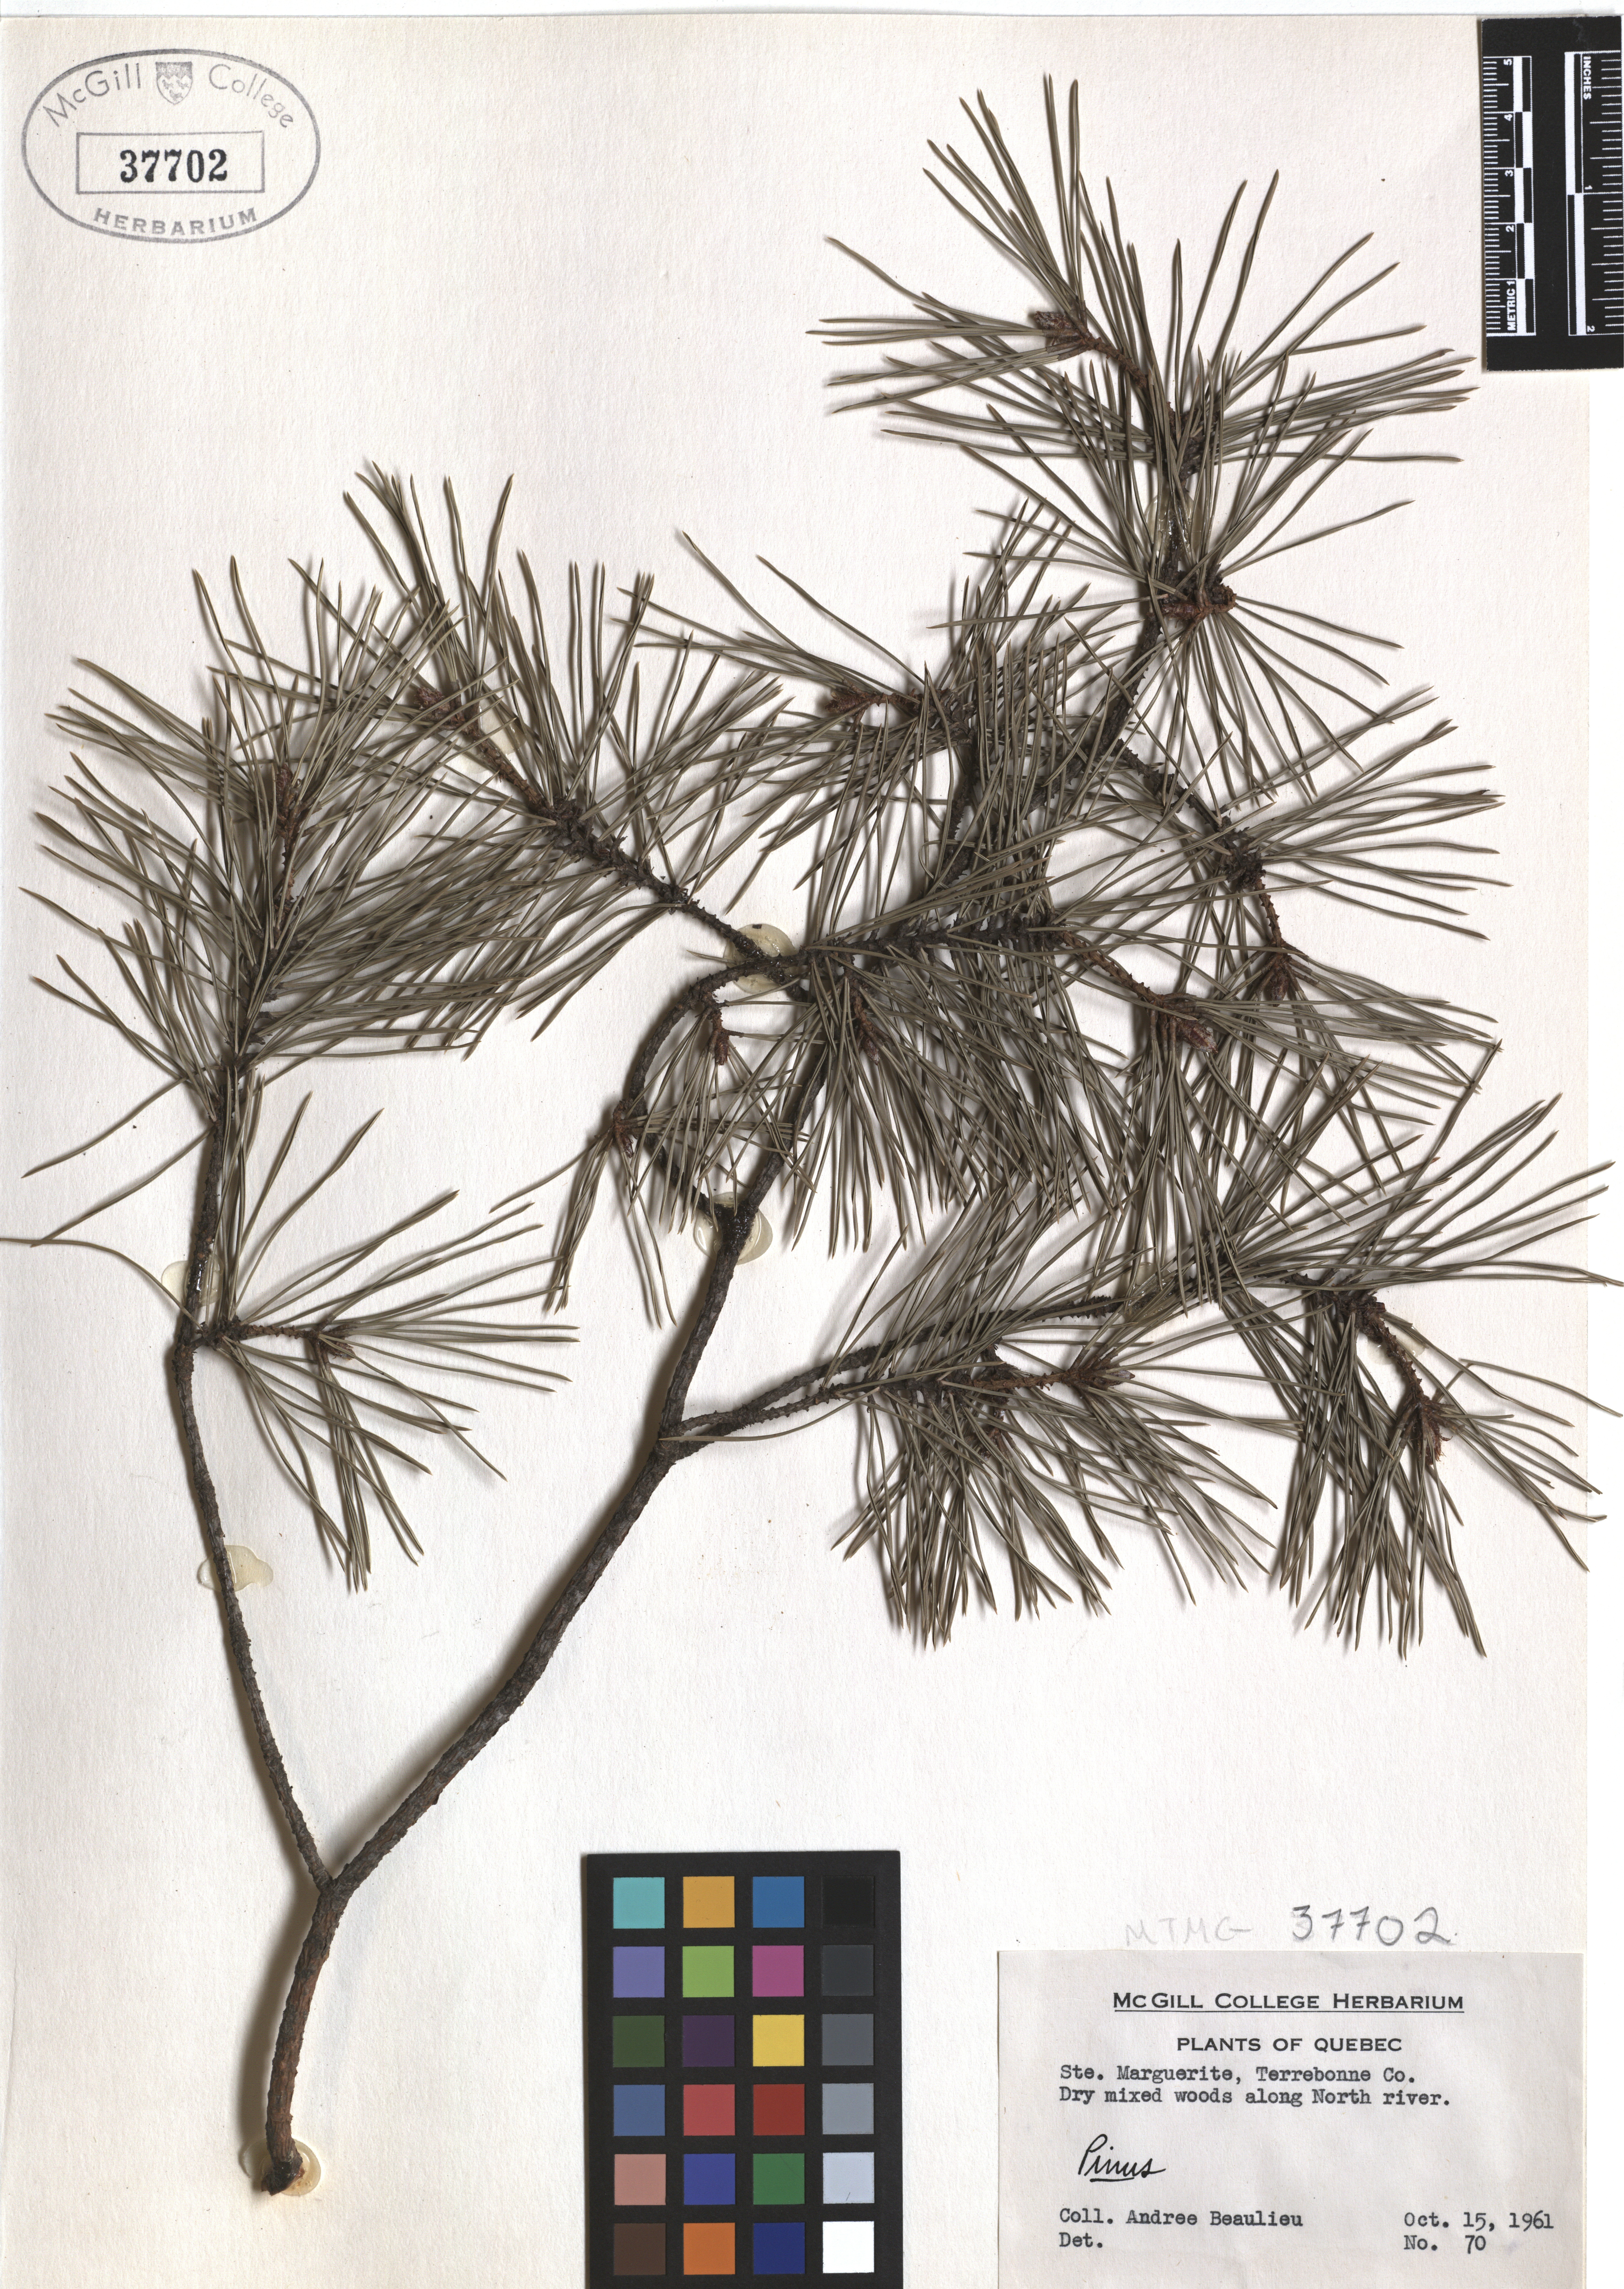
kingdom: Plantae
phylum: Tracheophyta
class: Pinopsida
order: Pinales
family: Pinaceae
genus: Pinus
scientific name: Pinus
